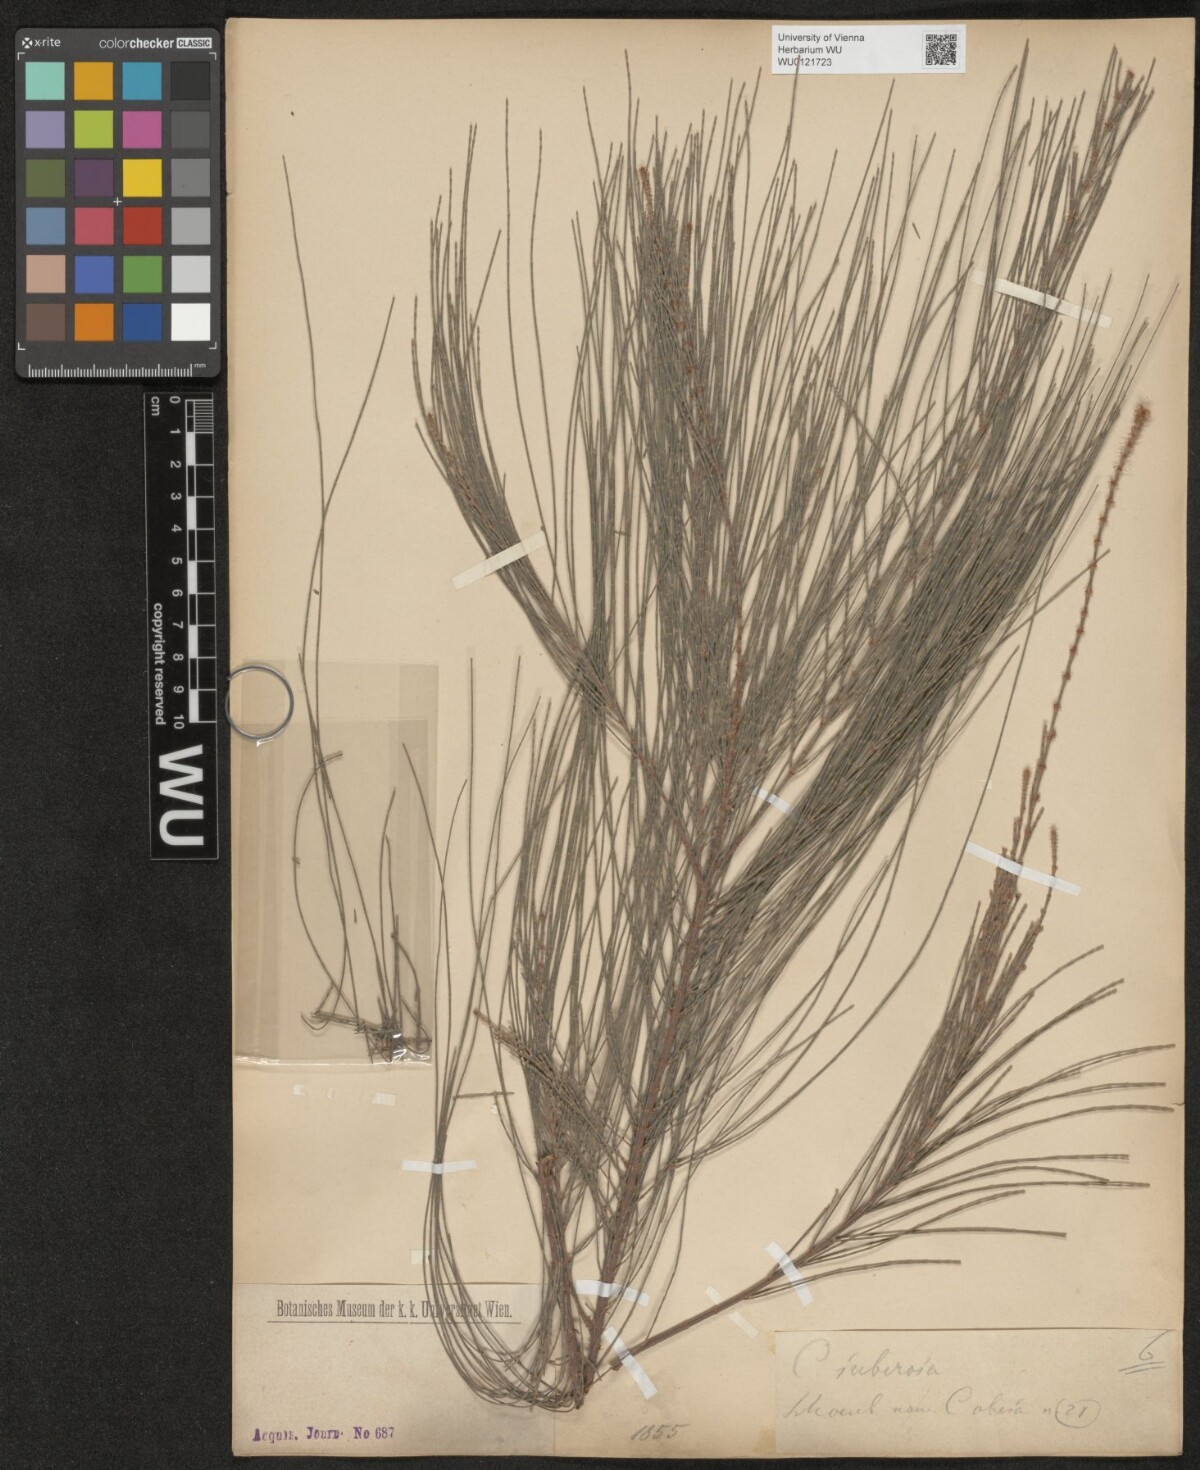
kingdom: Plantae
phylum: Tracheophyta
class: Magnoliopsida
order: Fagales
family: Casuarinaceae
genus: Allocasuarina
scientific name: Allocasuarina littoralis
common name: Black she-oak
